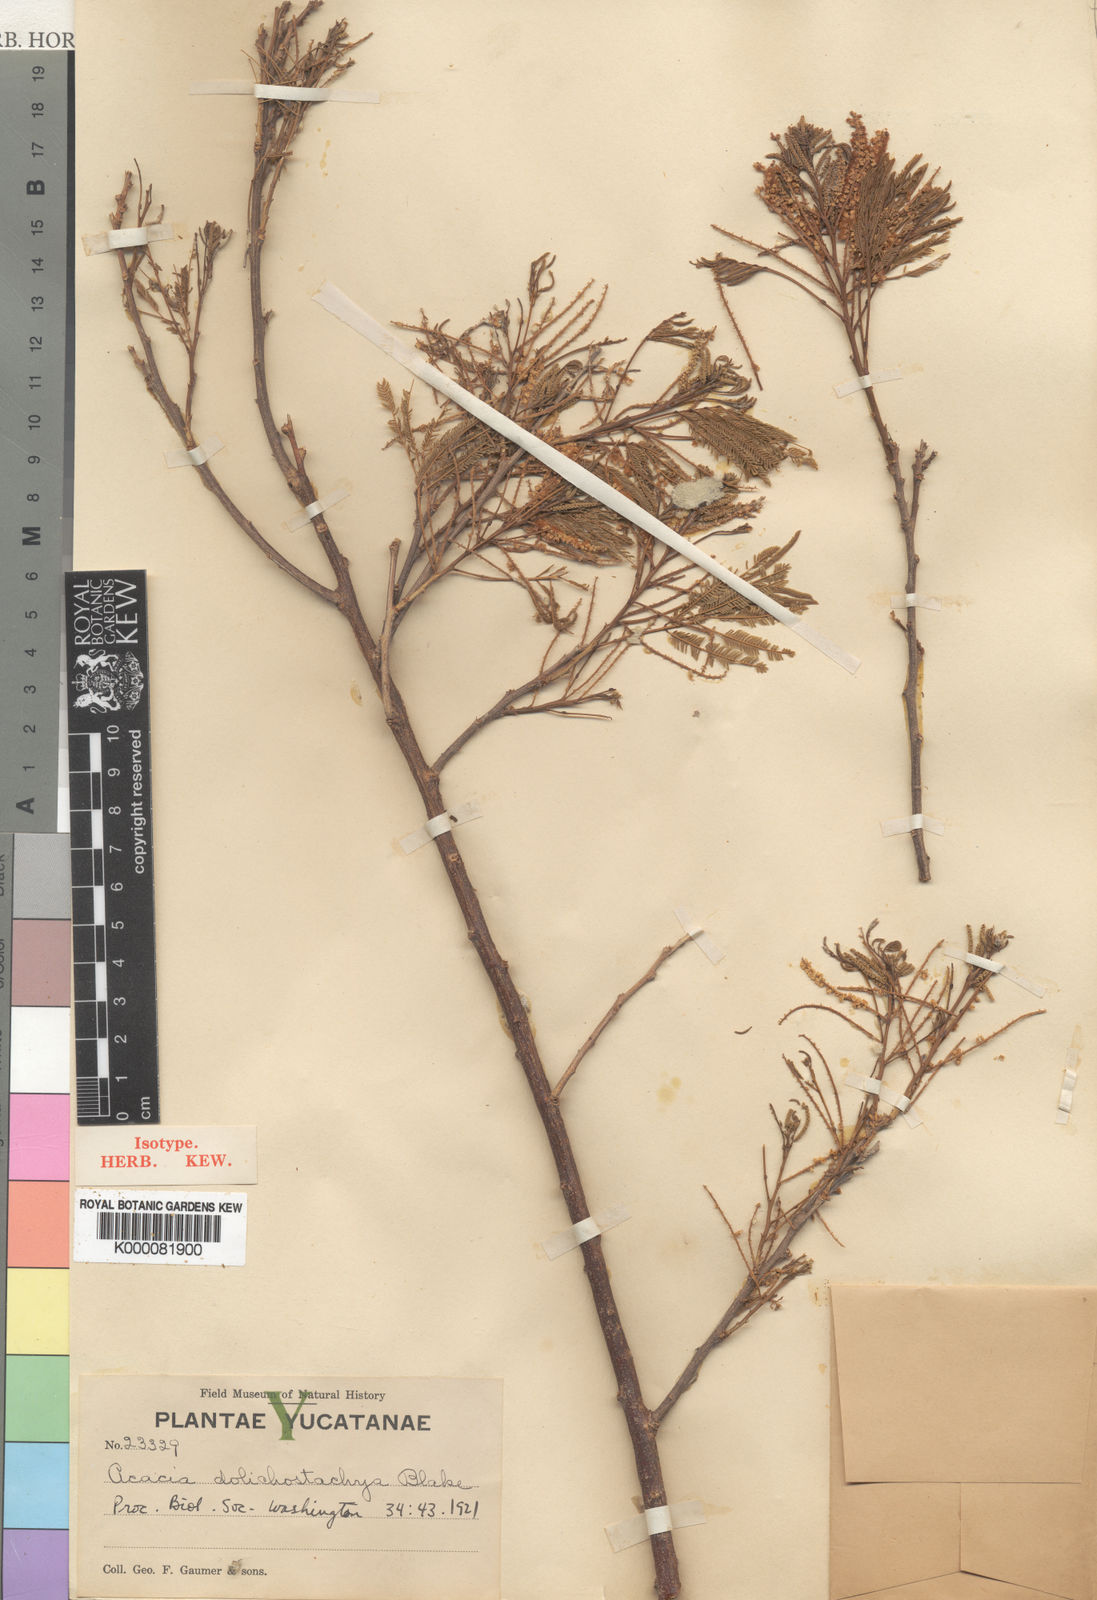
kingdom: Plantae
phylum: Tracheophyta
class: Magnoliopsida
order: Fabales
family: Fabaceae
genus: Mariosousa
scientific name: Mariosousa dolichostachya
